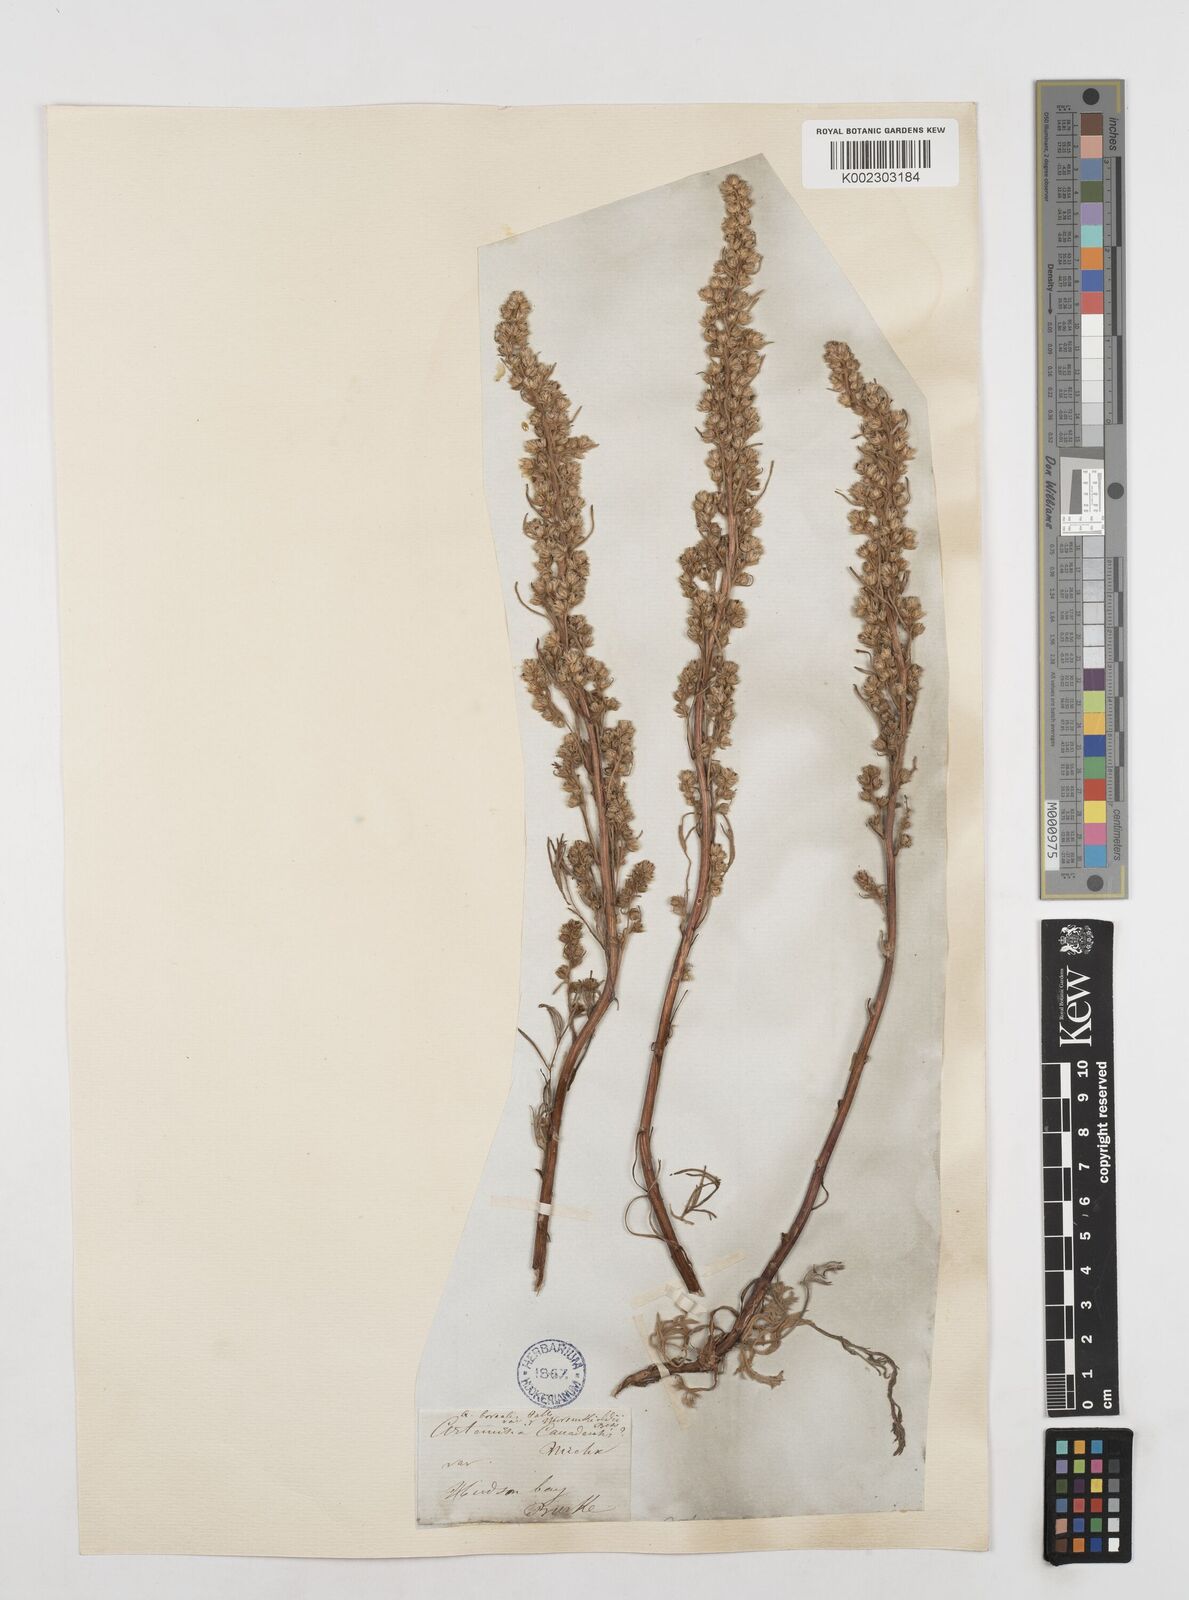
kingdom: Plantae
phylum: Tracheophyta
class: Magnoliopsida
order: Asterales
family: Asteraceae
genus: Artemisia
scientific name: Artemisia campestris
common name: Field wormwood
